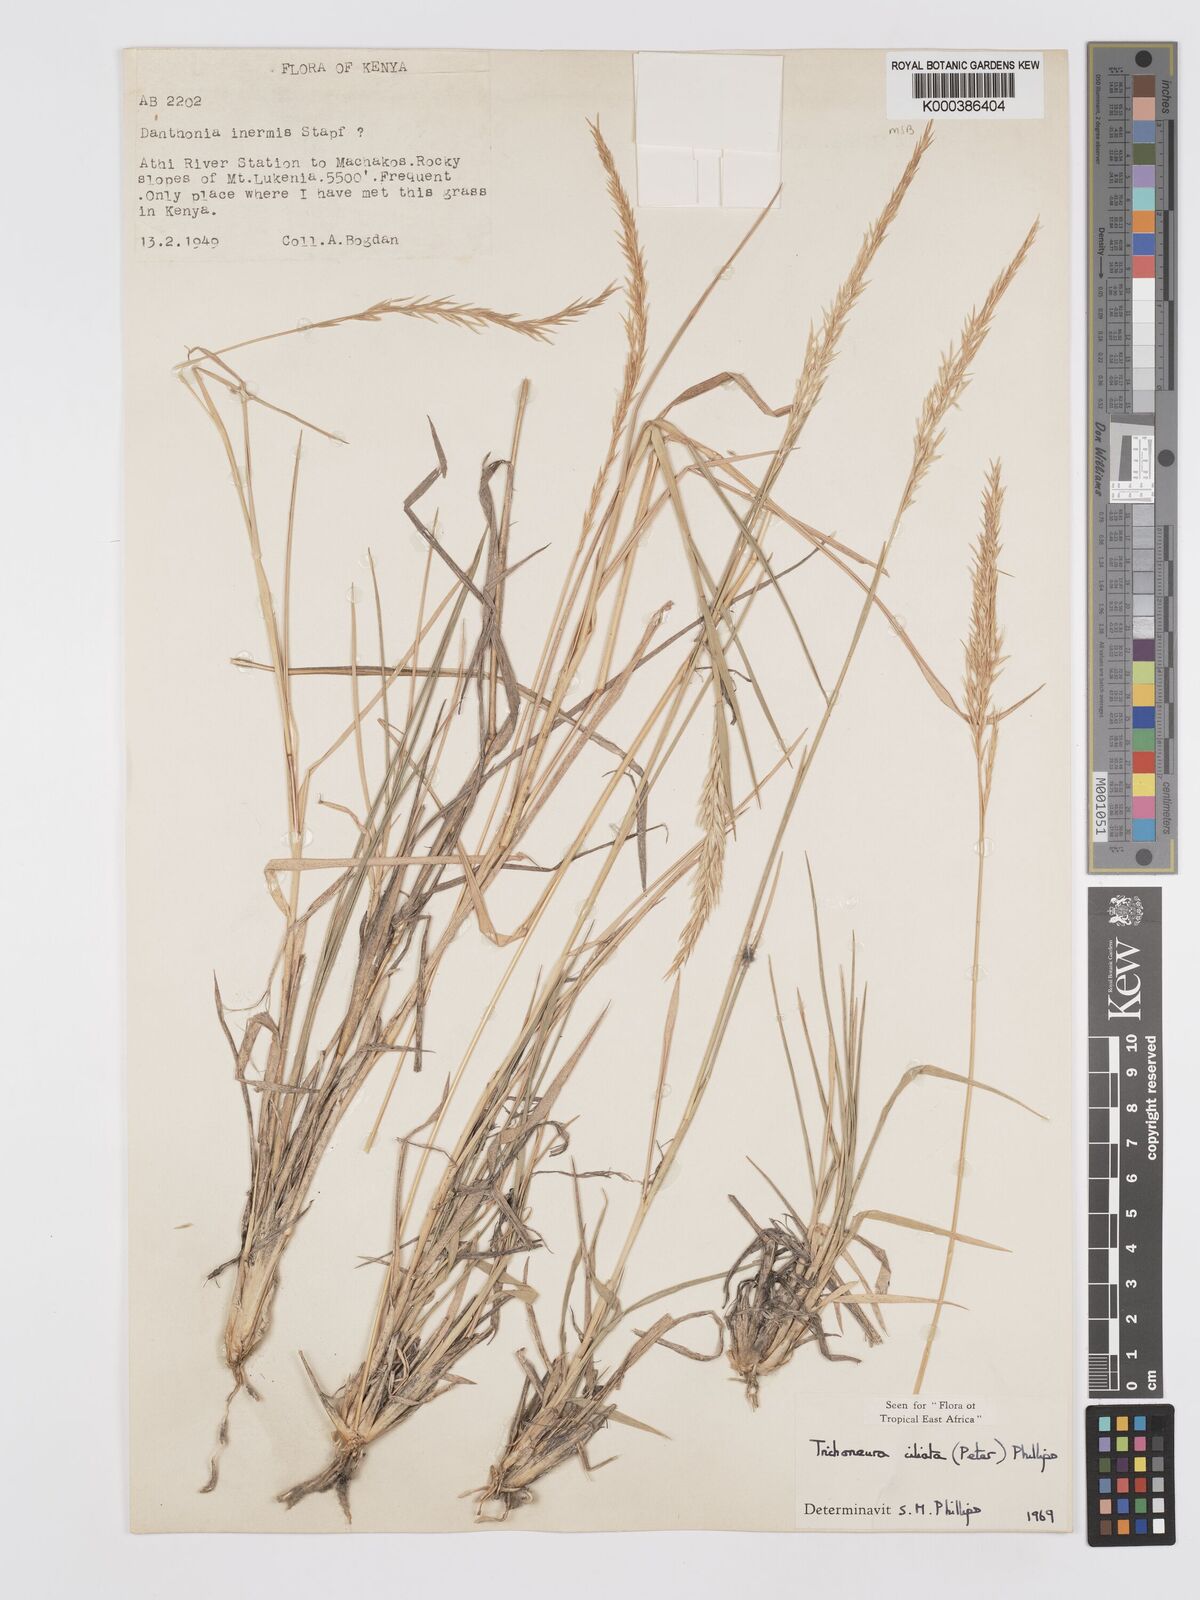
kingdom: Plantae
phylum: Tracheophyta
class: Liliopsida
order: Poales
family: Poaceae
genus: Trichoneura
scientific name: Trichoneura ciliata
